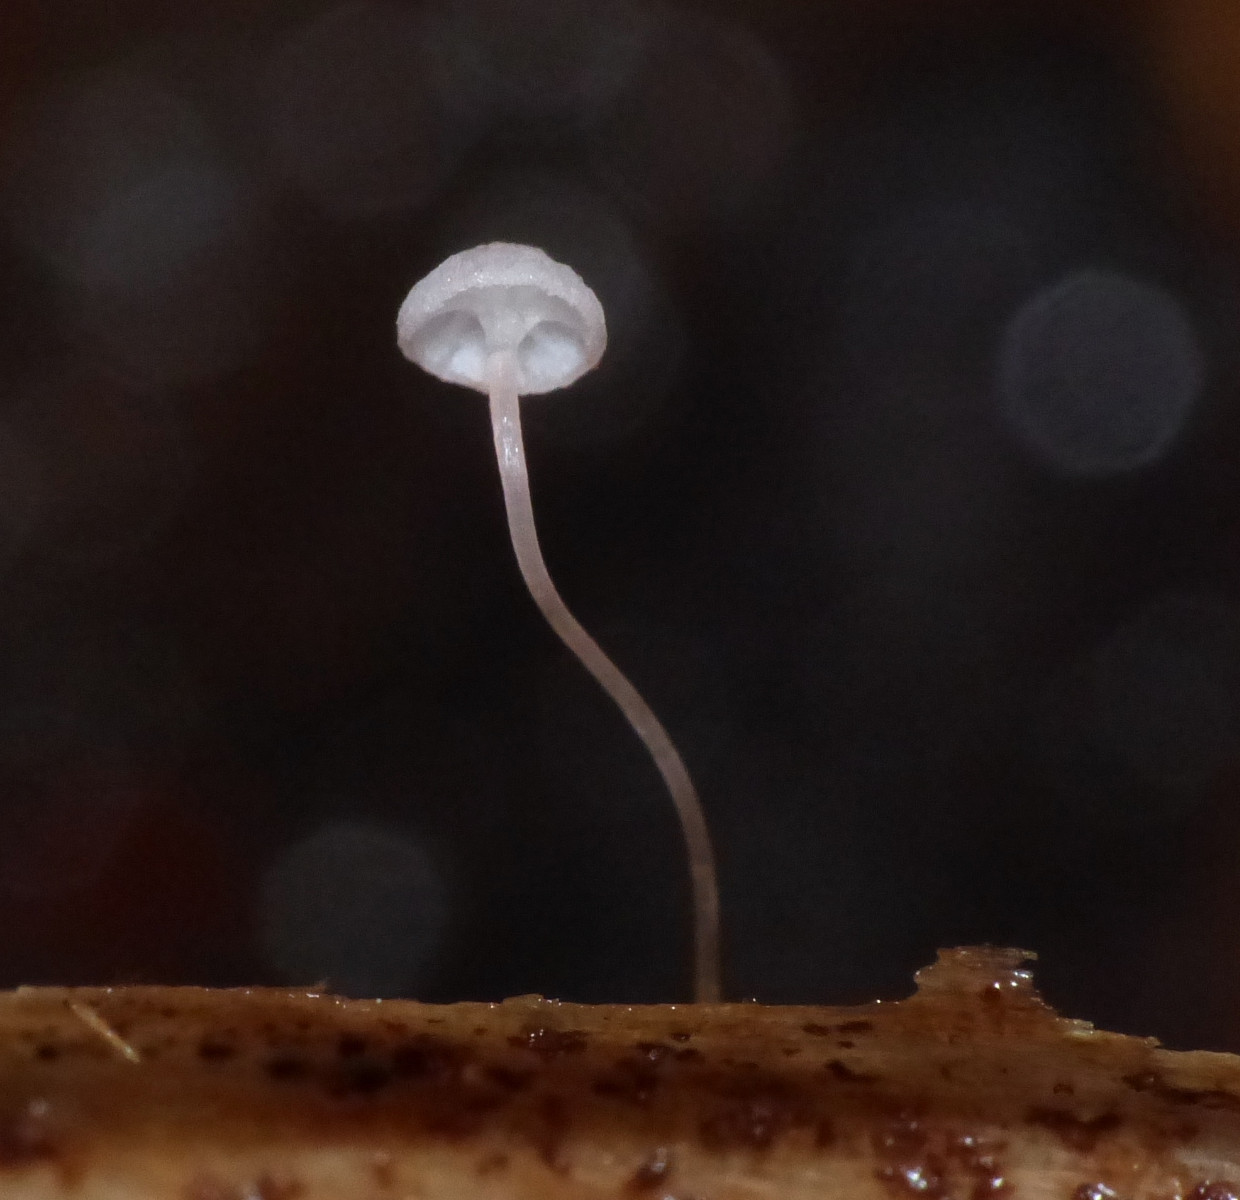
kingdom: Fungi
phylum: Basidiomycota
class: Agaricomycetes
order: Agaricales
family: Mycenaceae
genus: Mycena
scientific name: Mycena pterigena
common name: bregne-huesvamp
